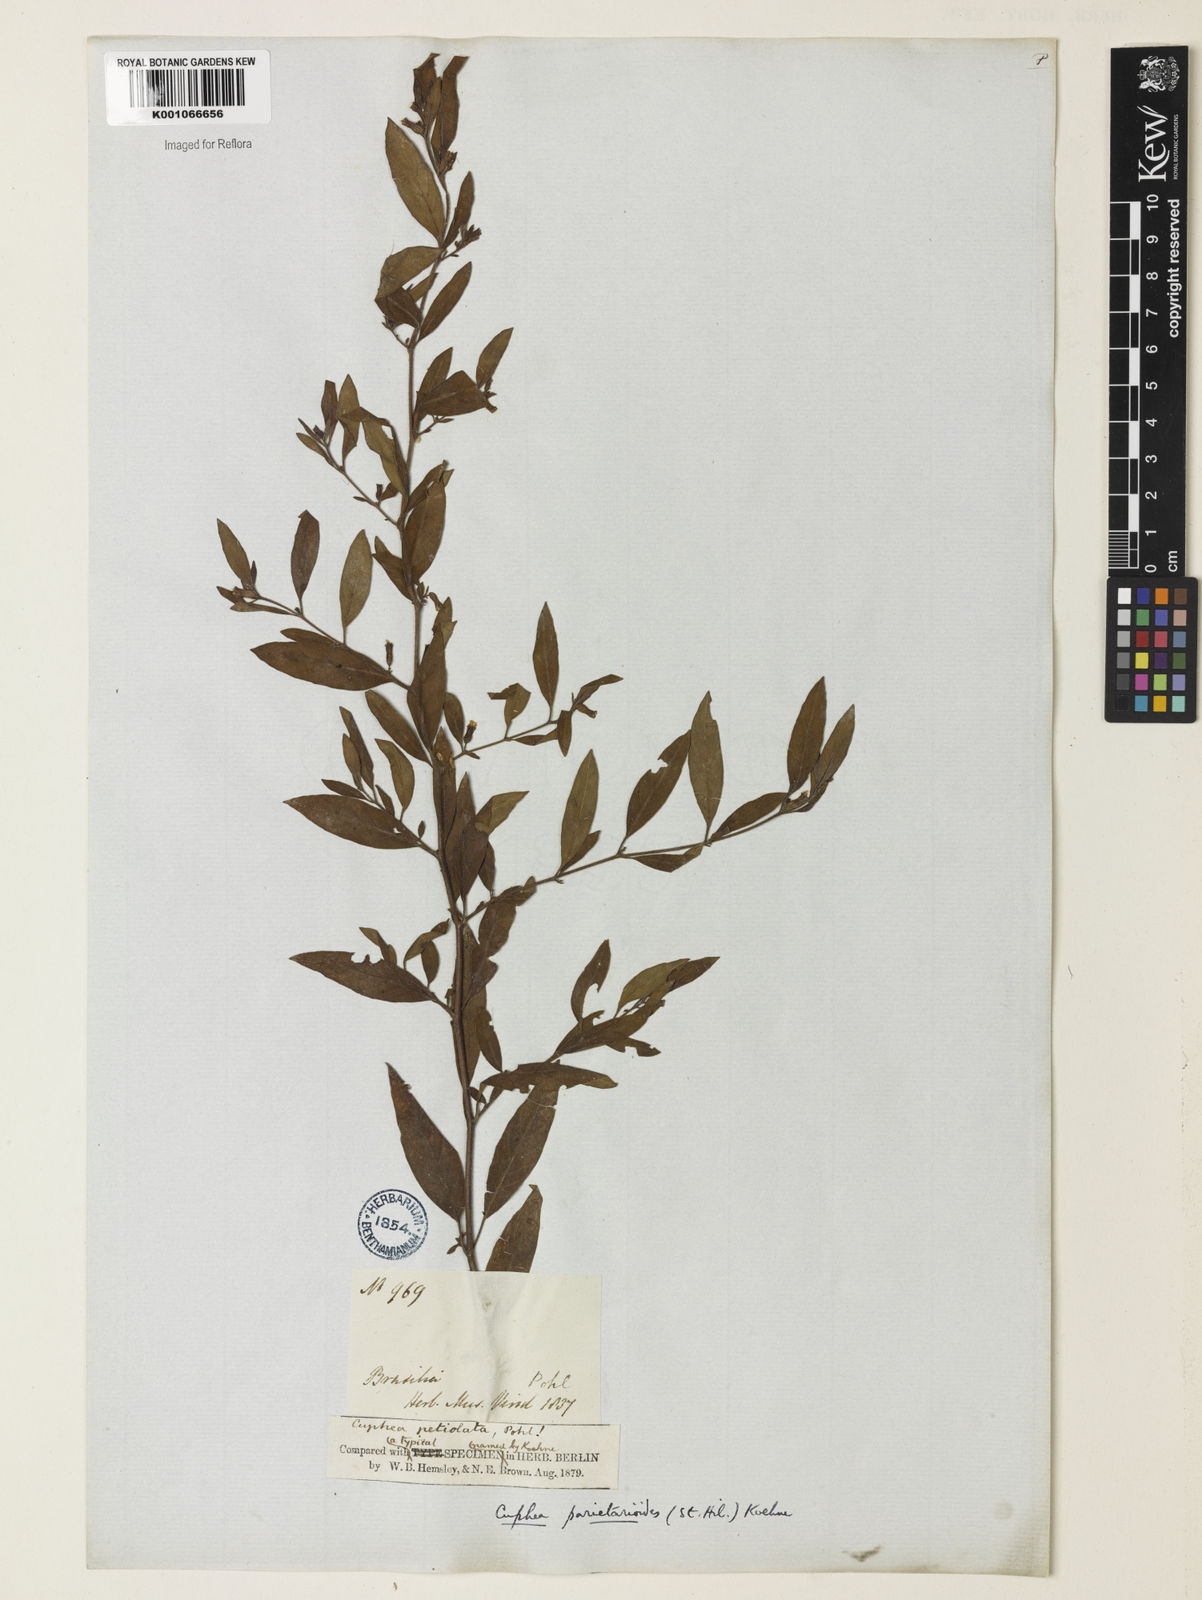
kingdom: Plantae
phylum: Tracheophyta
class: Magnoliopsida
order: Myrtales
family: Lythraceae
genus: Cuphea
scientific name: Cuphea
